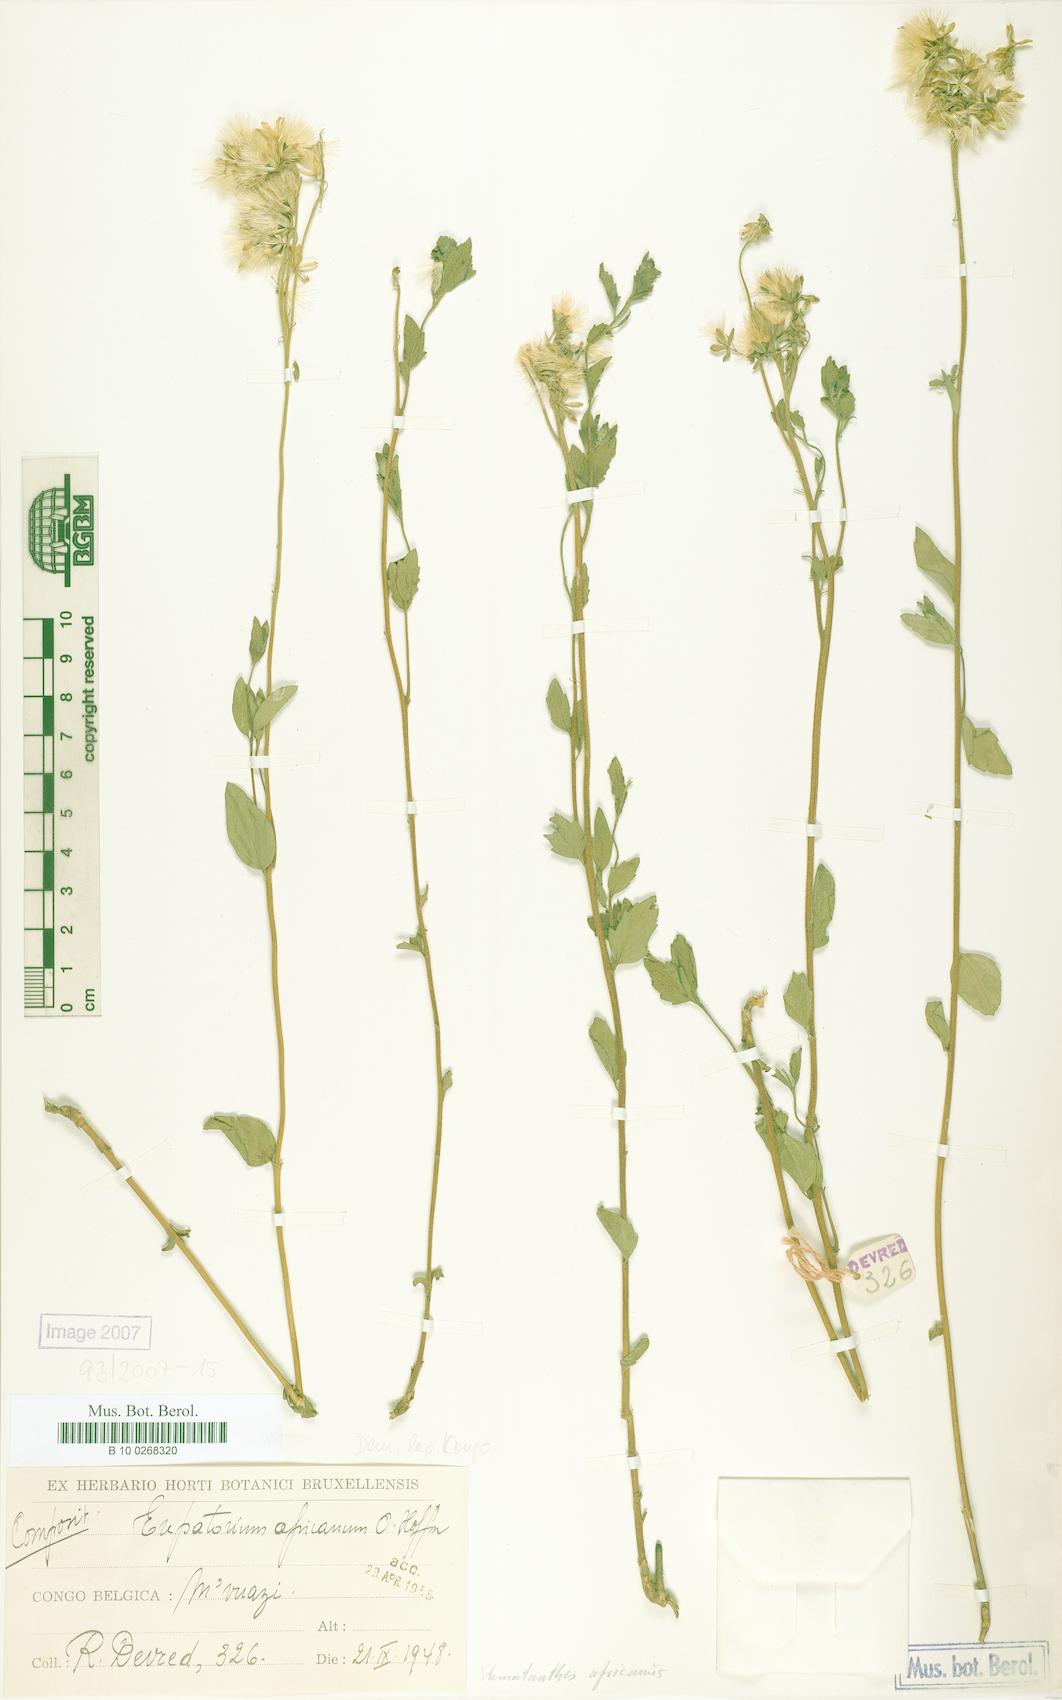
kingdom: Plantae
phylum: Tracheophyta
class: Magnoliopsida
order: Asterales
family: Asteraceae
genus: Stomatanthes
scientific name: Stomatanthes africanus
